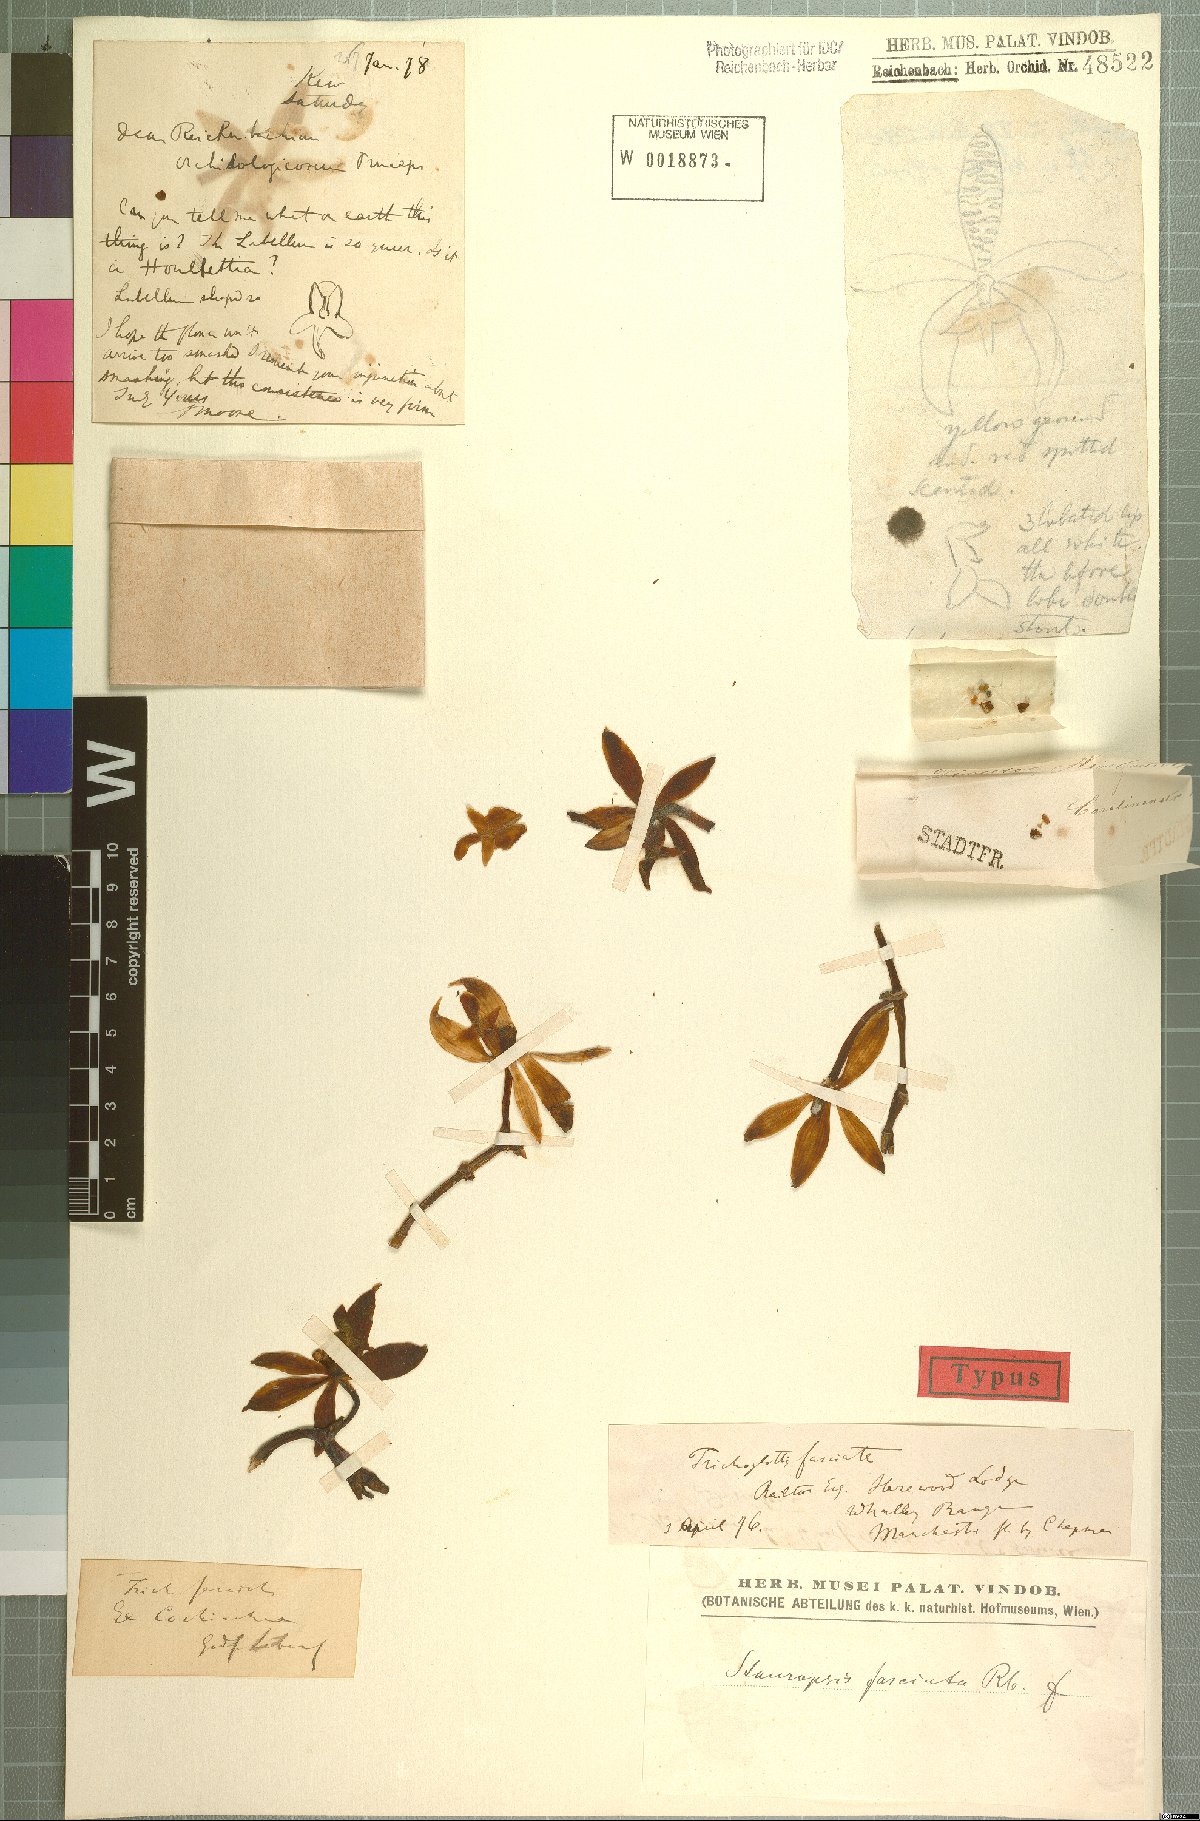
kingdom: Plantae
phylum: Tracheophyta
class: Liliopsida
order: Asparagales
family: Orchidaceae
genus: Trichoglottis
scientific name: Trichoglottis fasciata
